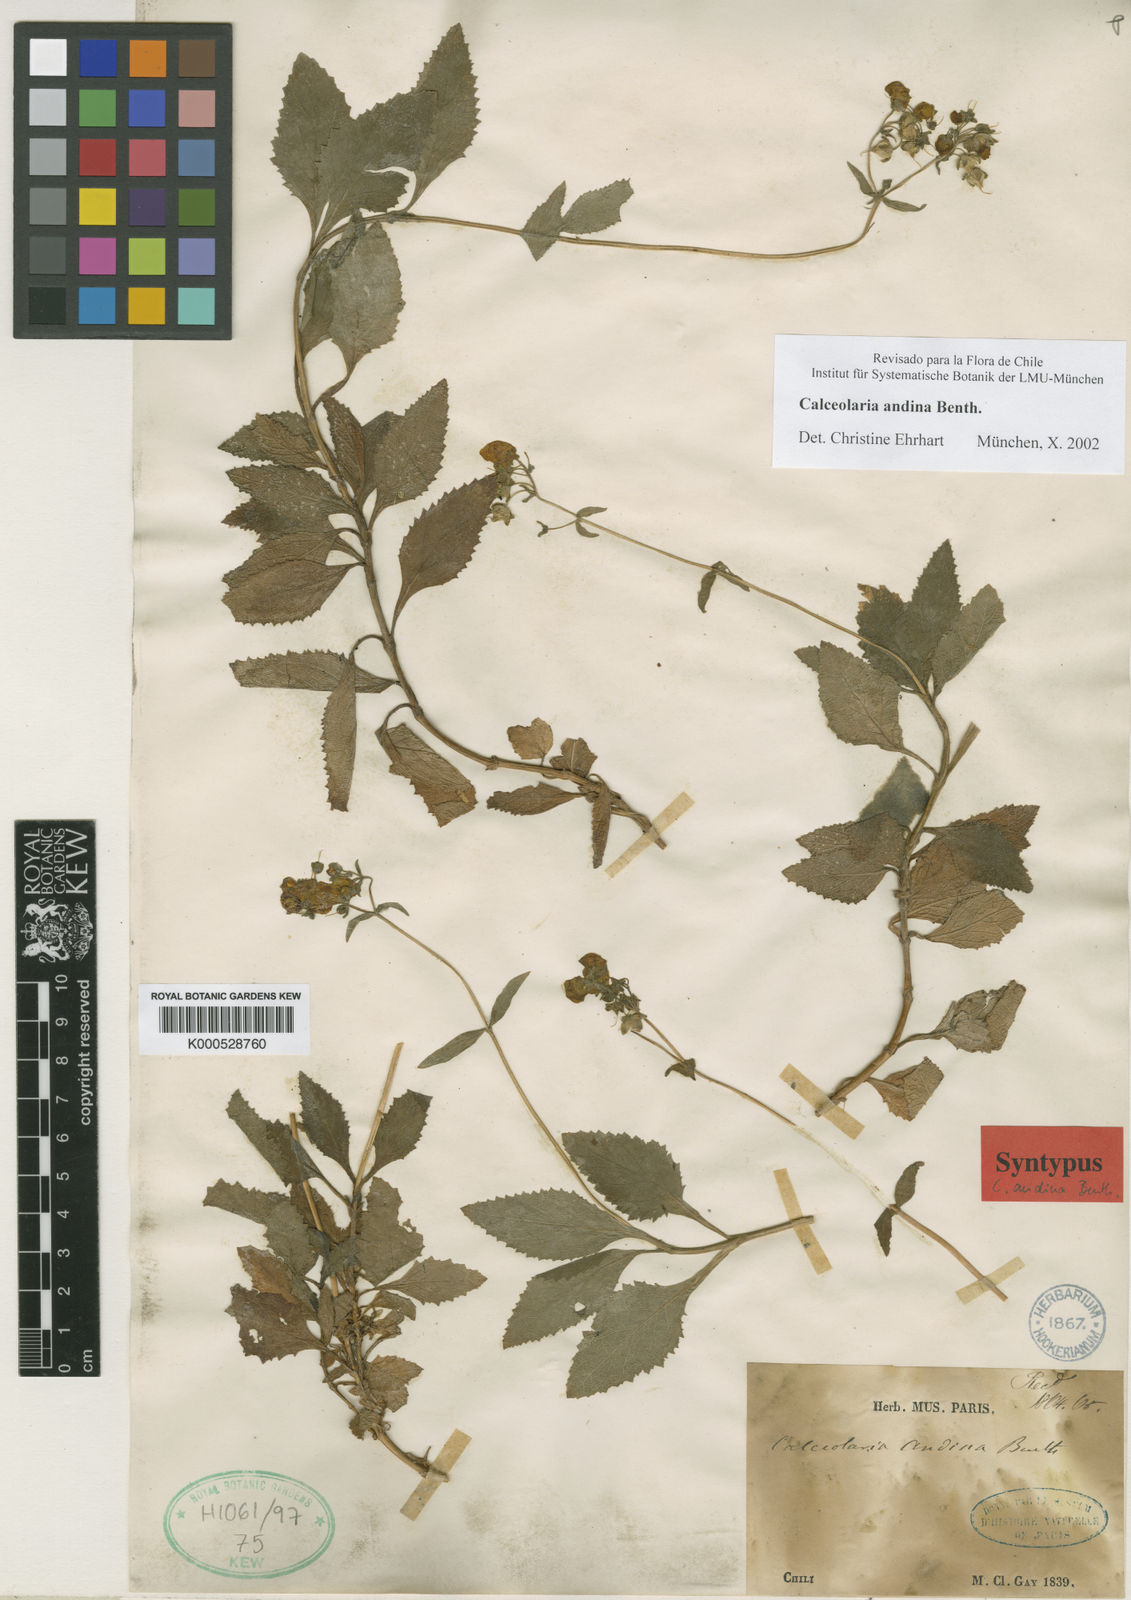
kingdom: Plantae
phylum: Tracheophyta
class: Magnoliopsida
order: Lamiales
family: Calceolariaceae
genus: Calceolaria
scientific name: Calceolaria valdiviana
